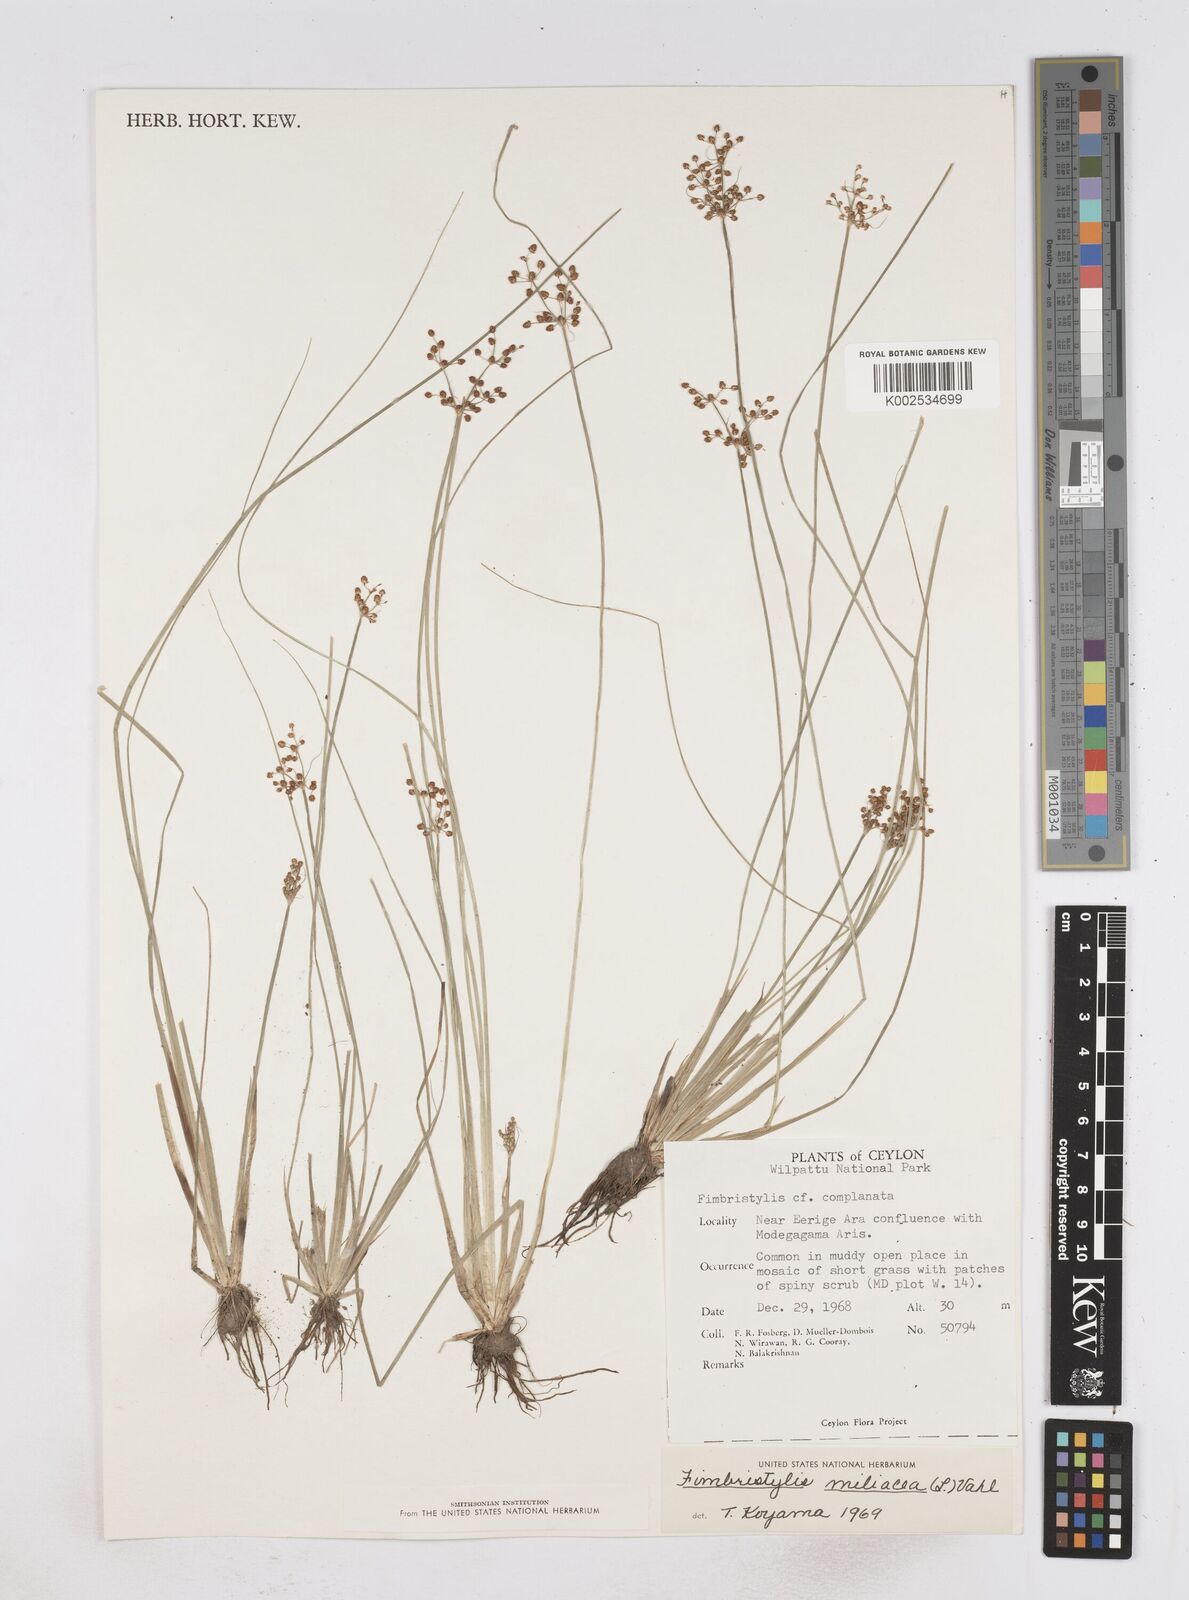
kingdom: Plantae
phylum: Tracheophyta
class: Liliopsida
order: Poales
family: Cyperaceae
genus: Fimbristylis
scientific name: Fimbristylis littoralis
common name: Fimbry
